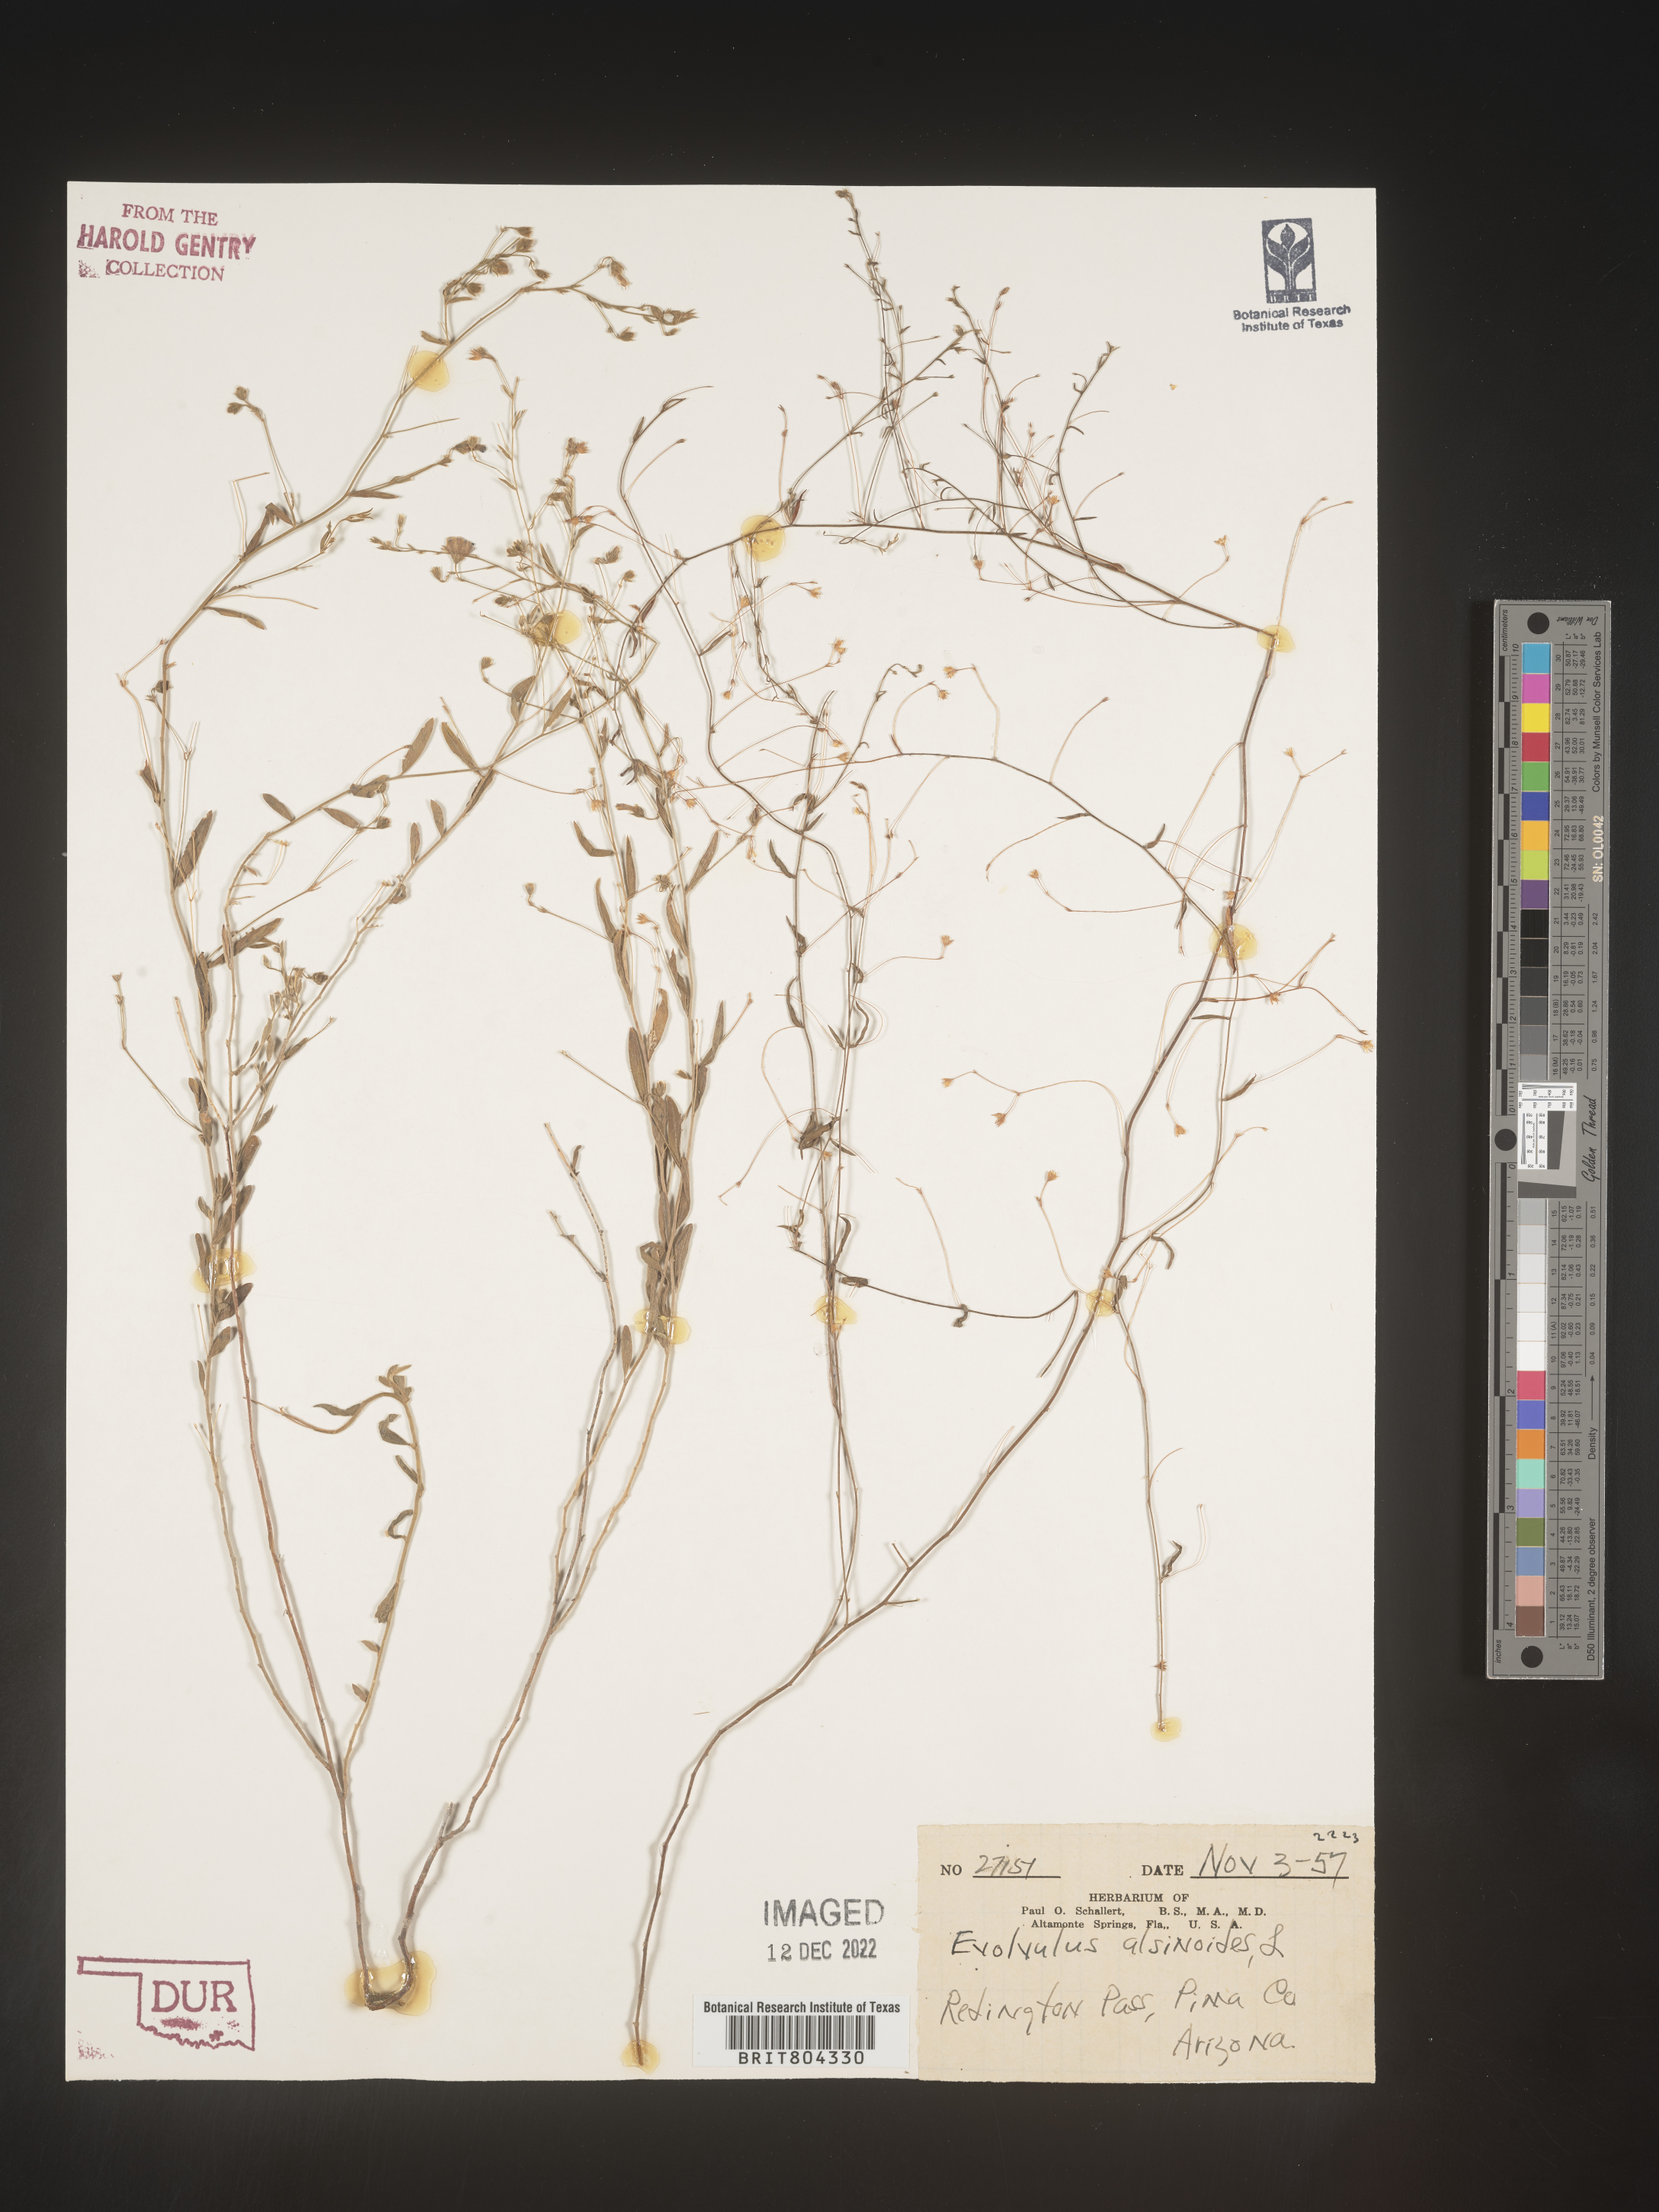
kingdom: Plantae
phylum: Tracheophyta
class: Magnoliopsida
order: Solanales
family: Convolvulaceae
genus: Evolvulus
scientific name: Evolvulus arizonicus
